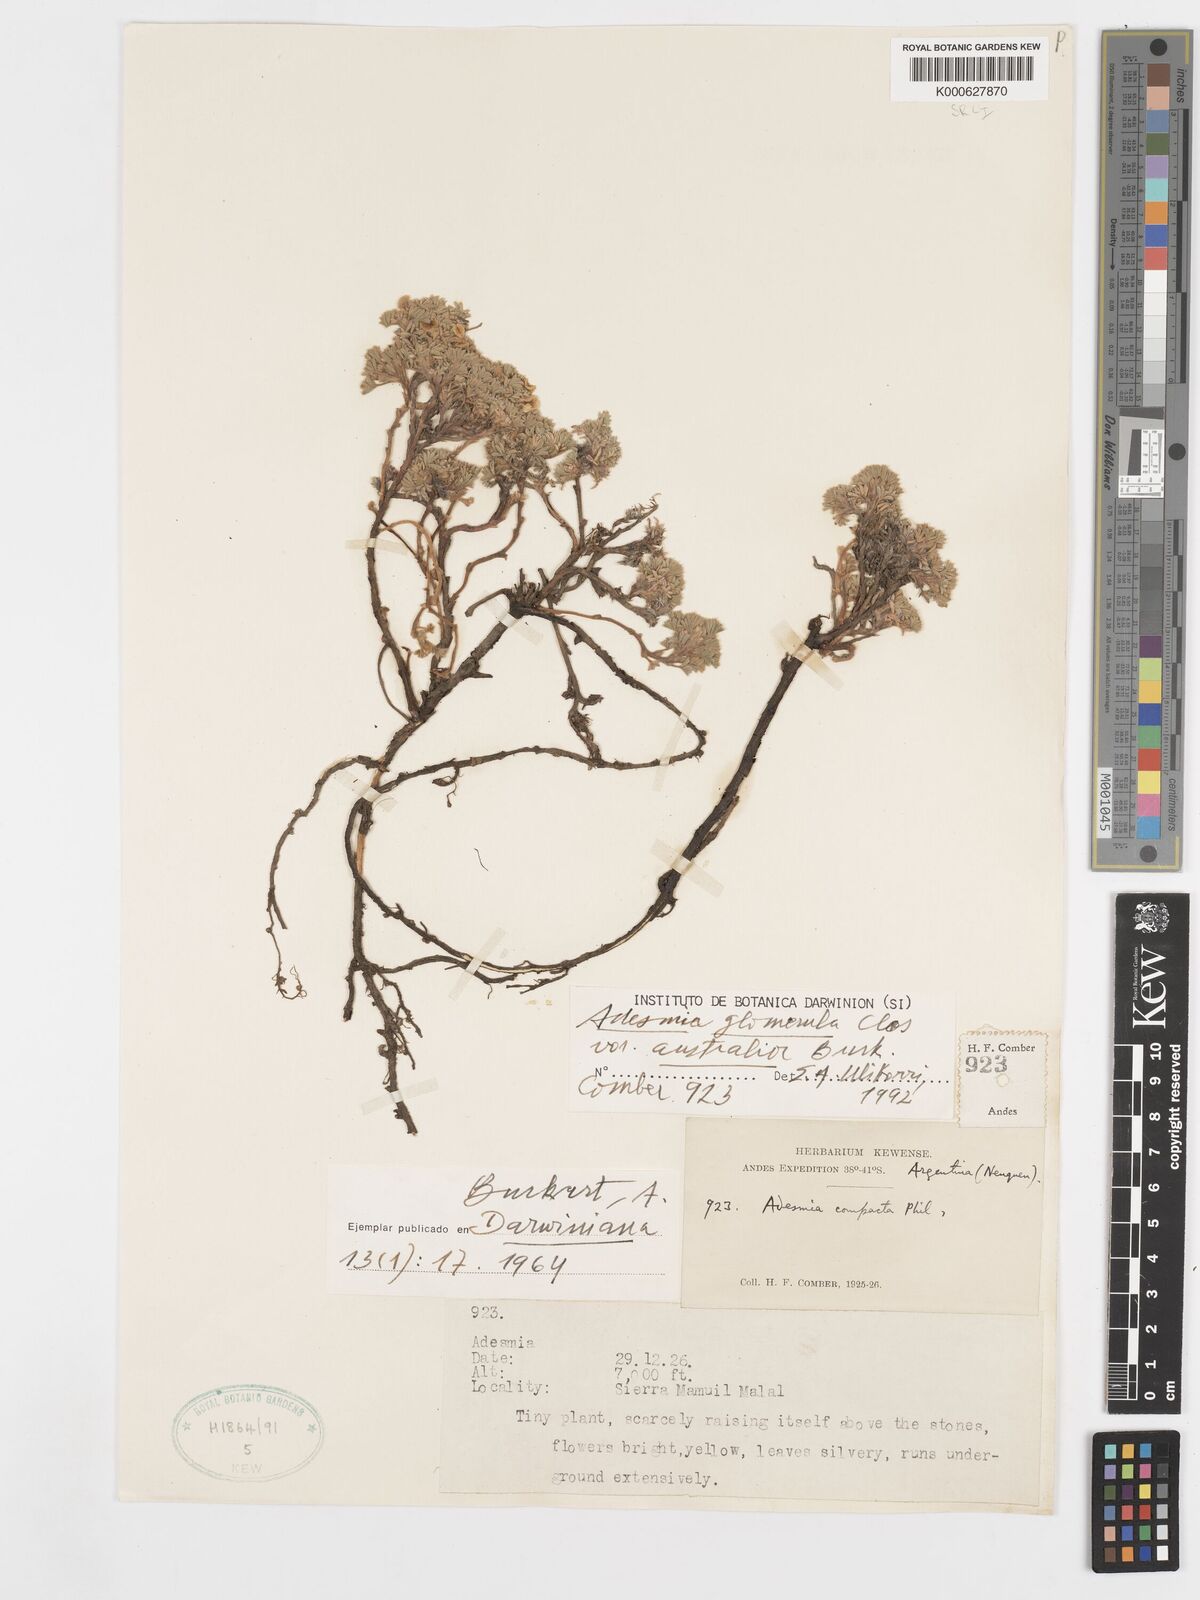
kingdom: Plantae
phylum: Tracheophyta
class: Magnoliopsida
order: Fabales
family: Fabaceae
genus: Adesmia
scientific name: Adesmia glomerula
